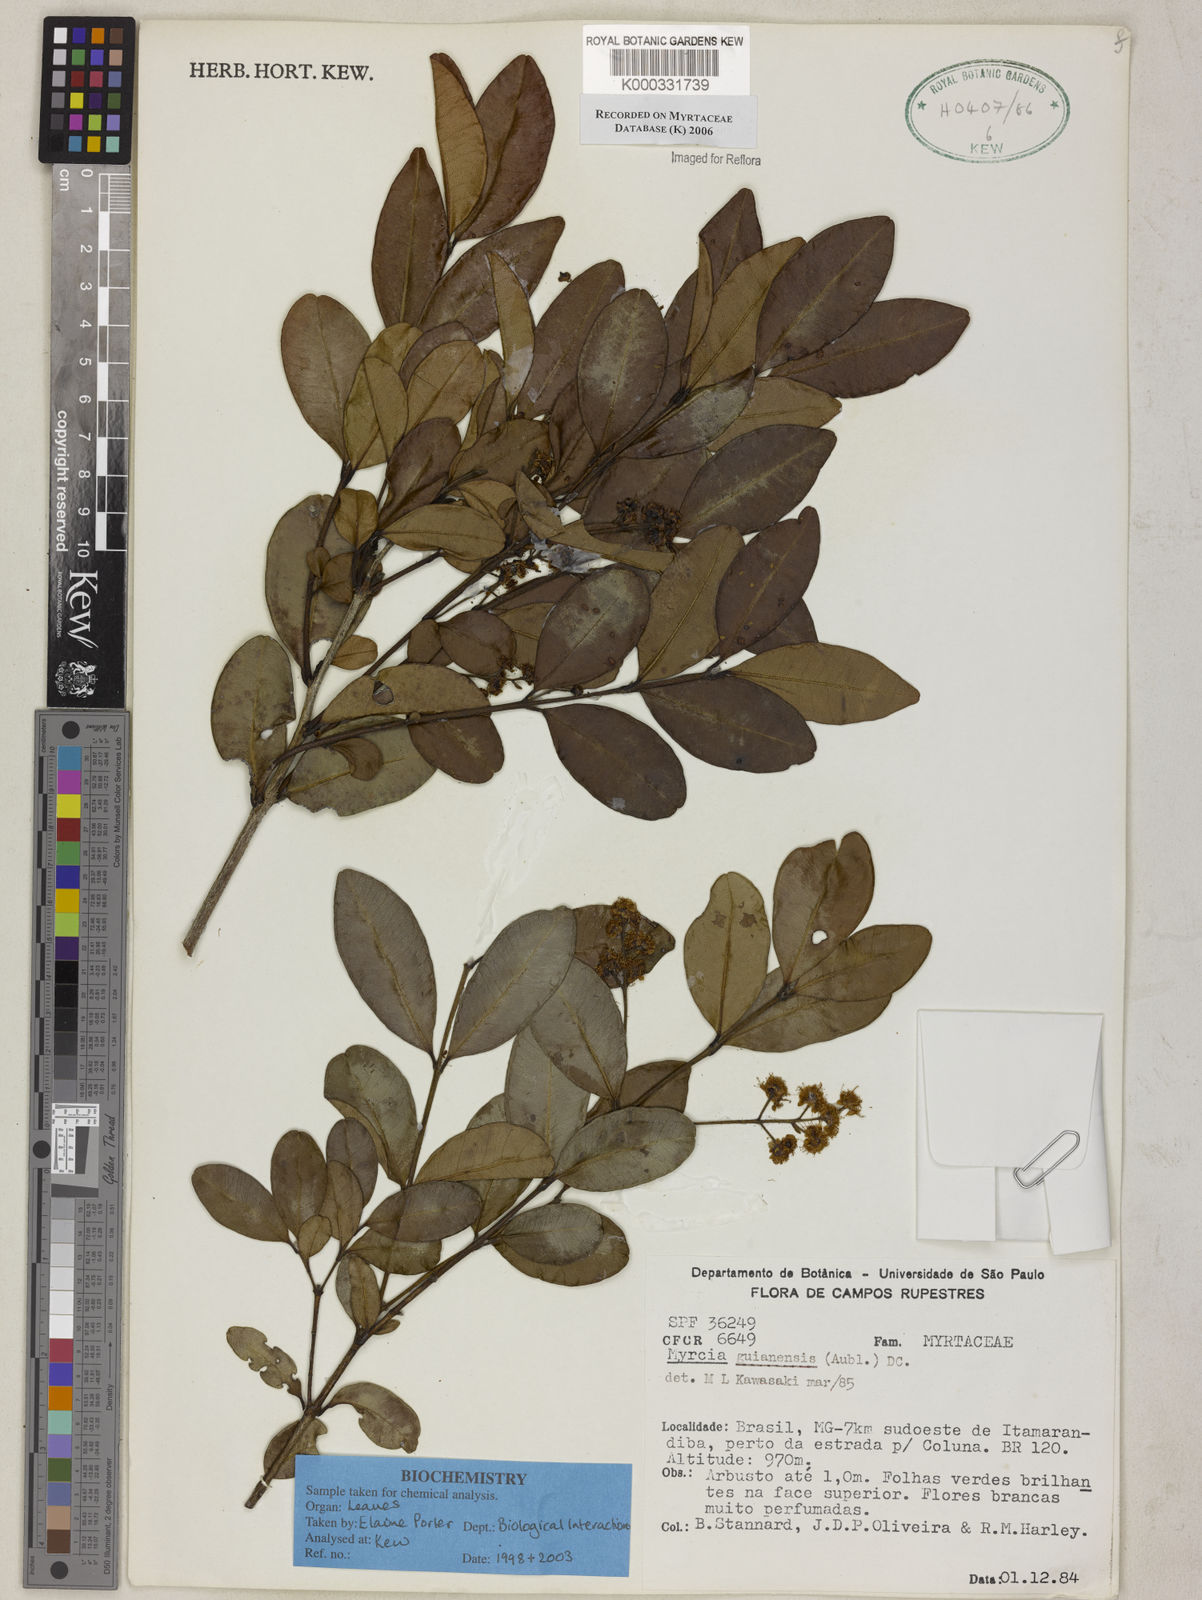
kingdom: Plantae
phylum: Tracheophyta
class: Magnoliopsida
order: Myrtales
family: Myrtaceae
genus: Myrcia
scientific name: Myrcia guianensis
